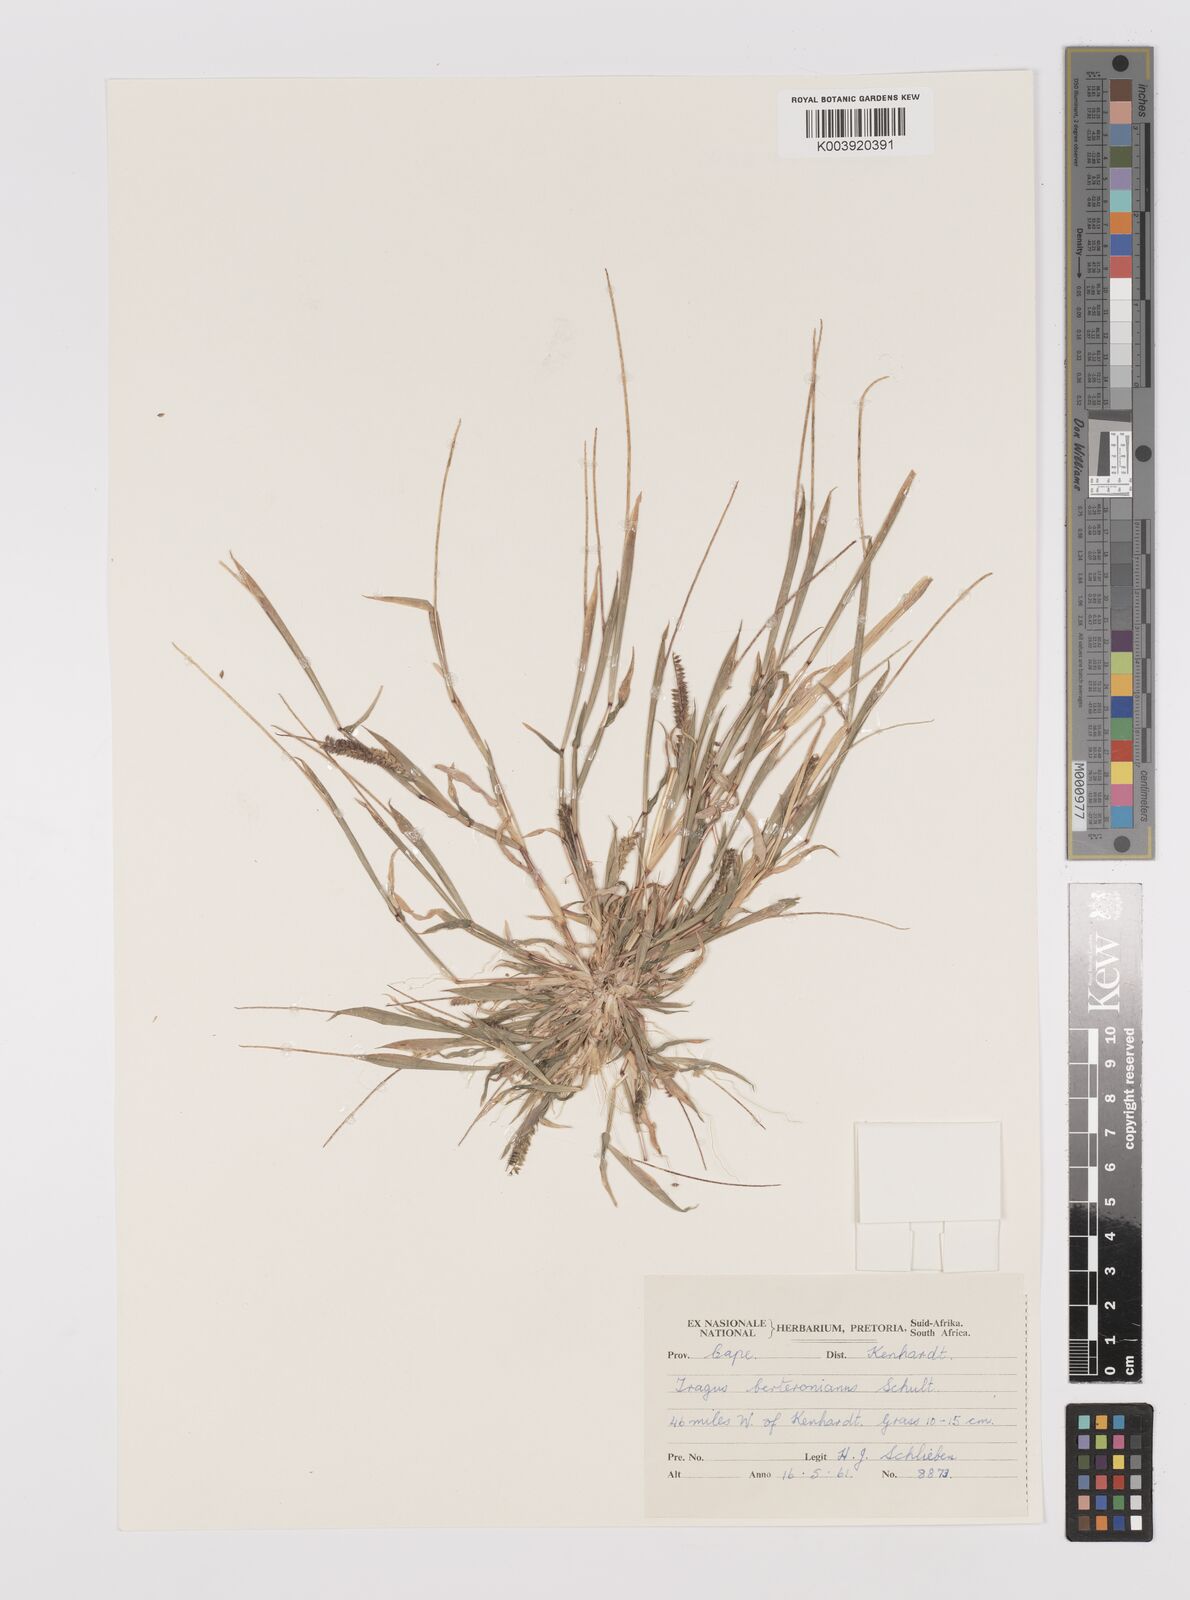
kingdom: Plantae
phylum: Tracheophyta
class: Liliopsida
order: Poales
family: Poaceae
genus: Tragus
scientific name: Tragus berteronianus
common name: African bur-grass
